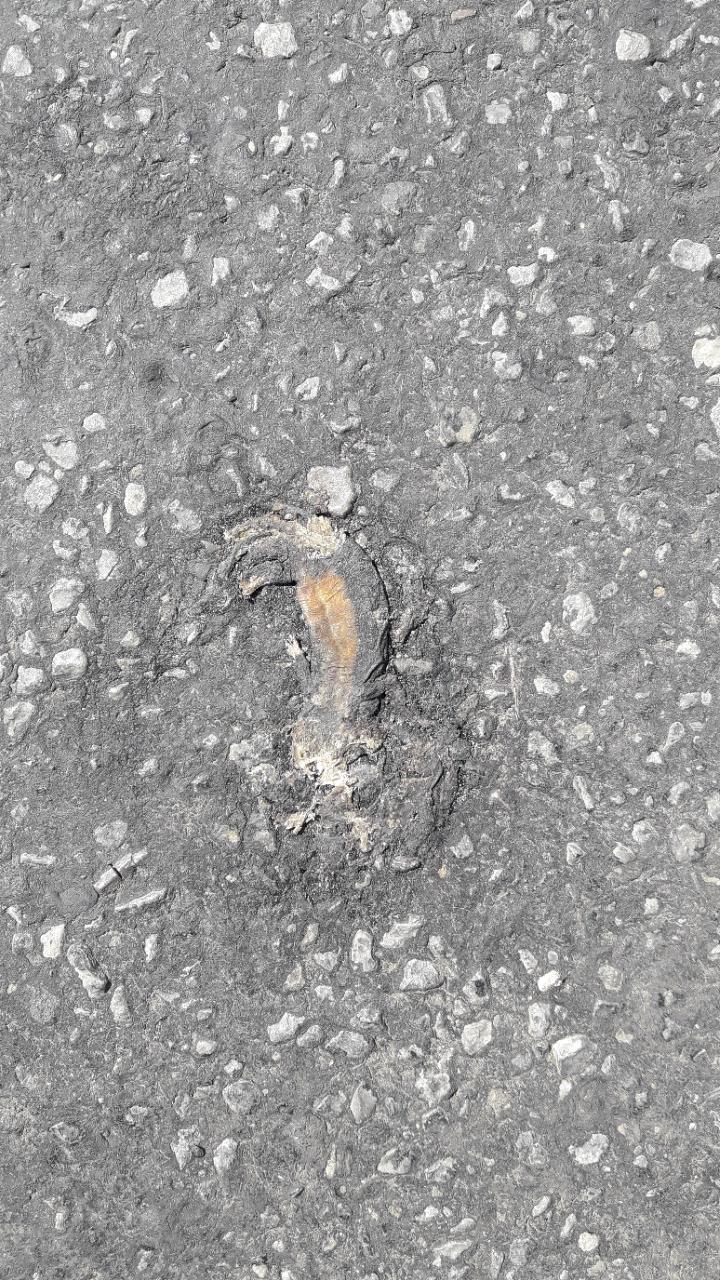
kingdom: Animalia
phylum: Chordata
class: Amphibia
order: Caudata
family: Salamandridae
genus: Ichthyosaura
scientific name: Ichthyosaura alpestris
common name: Alpine newt
